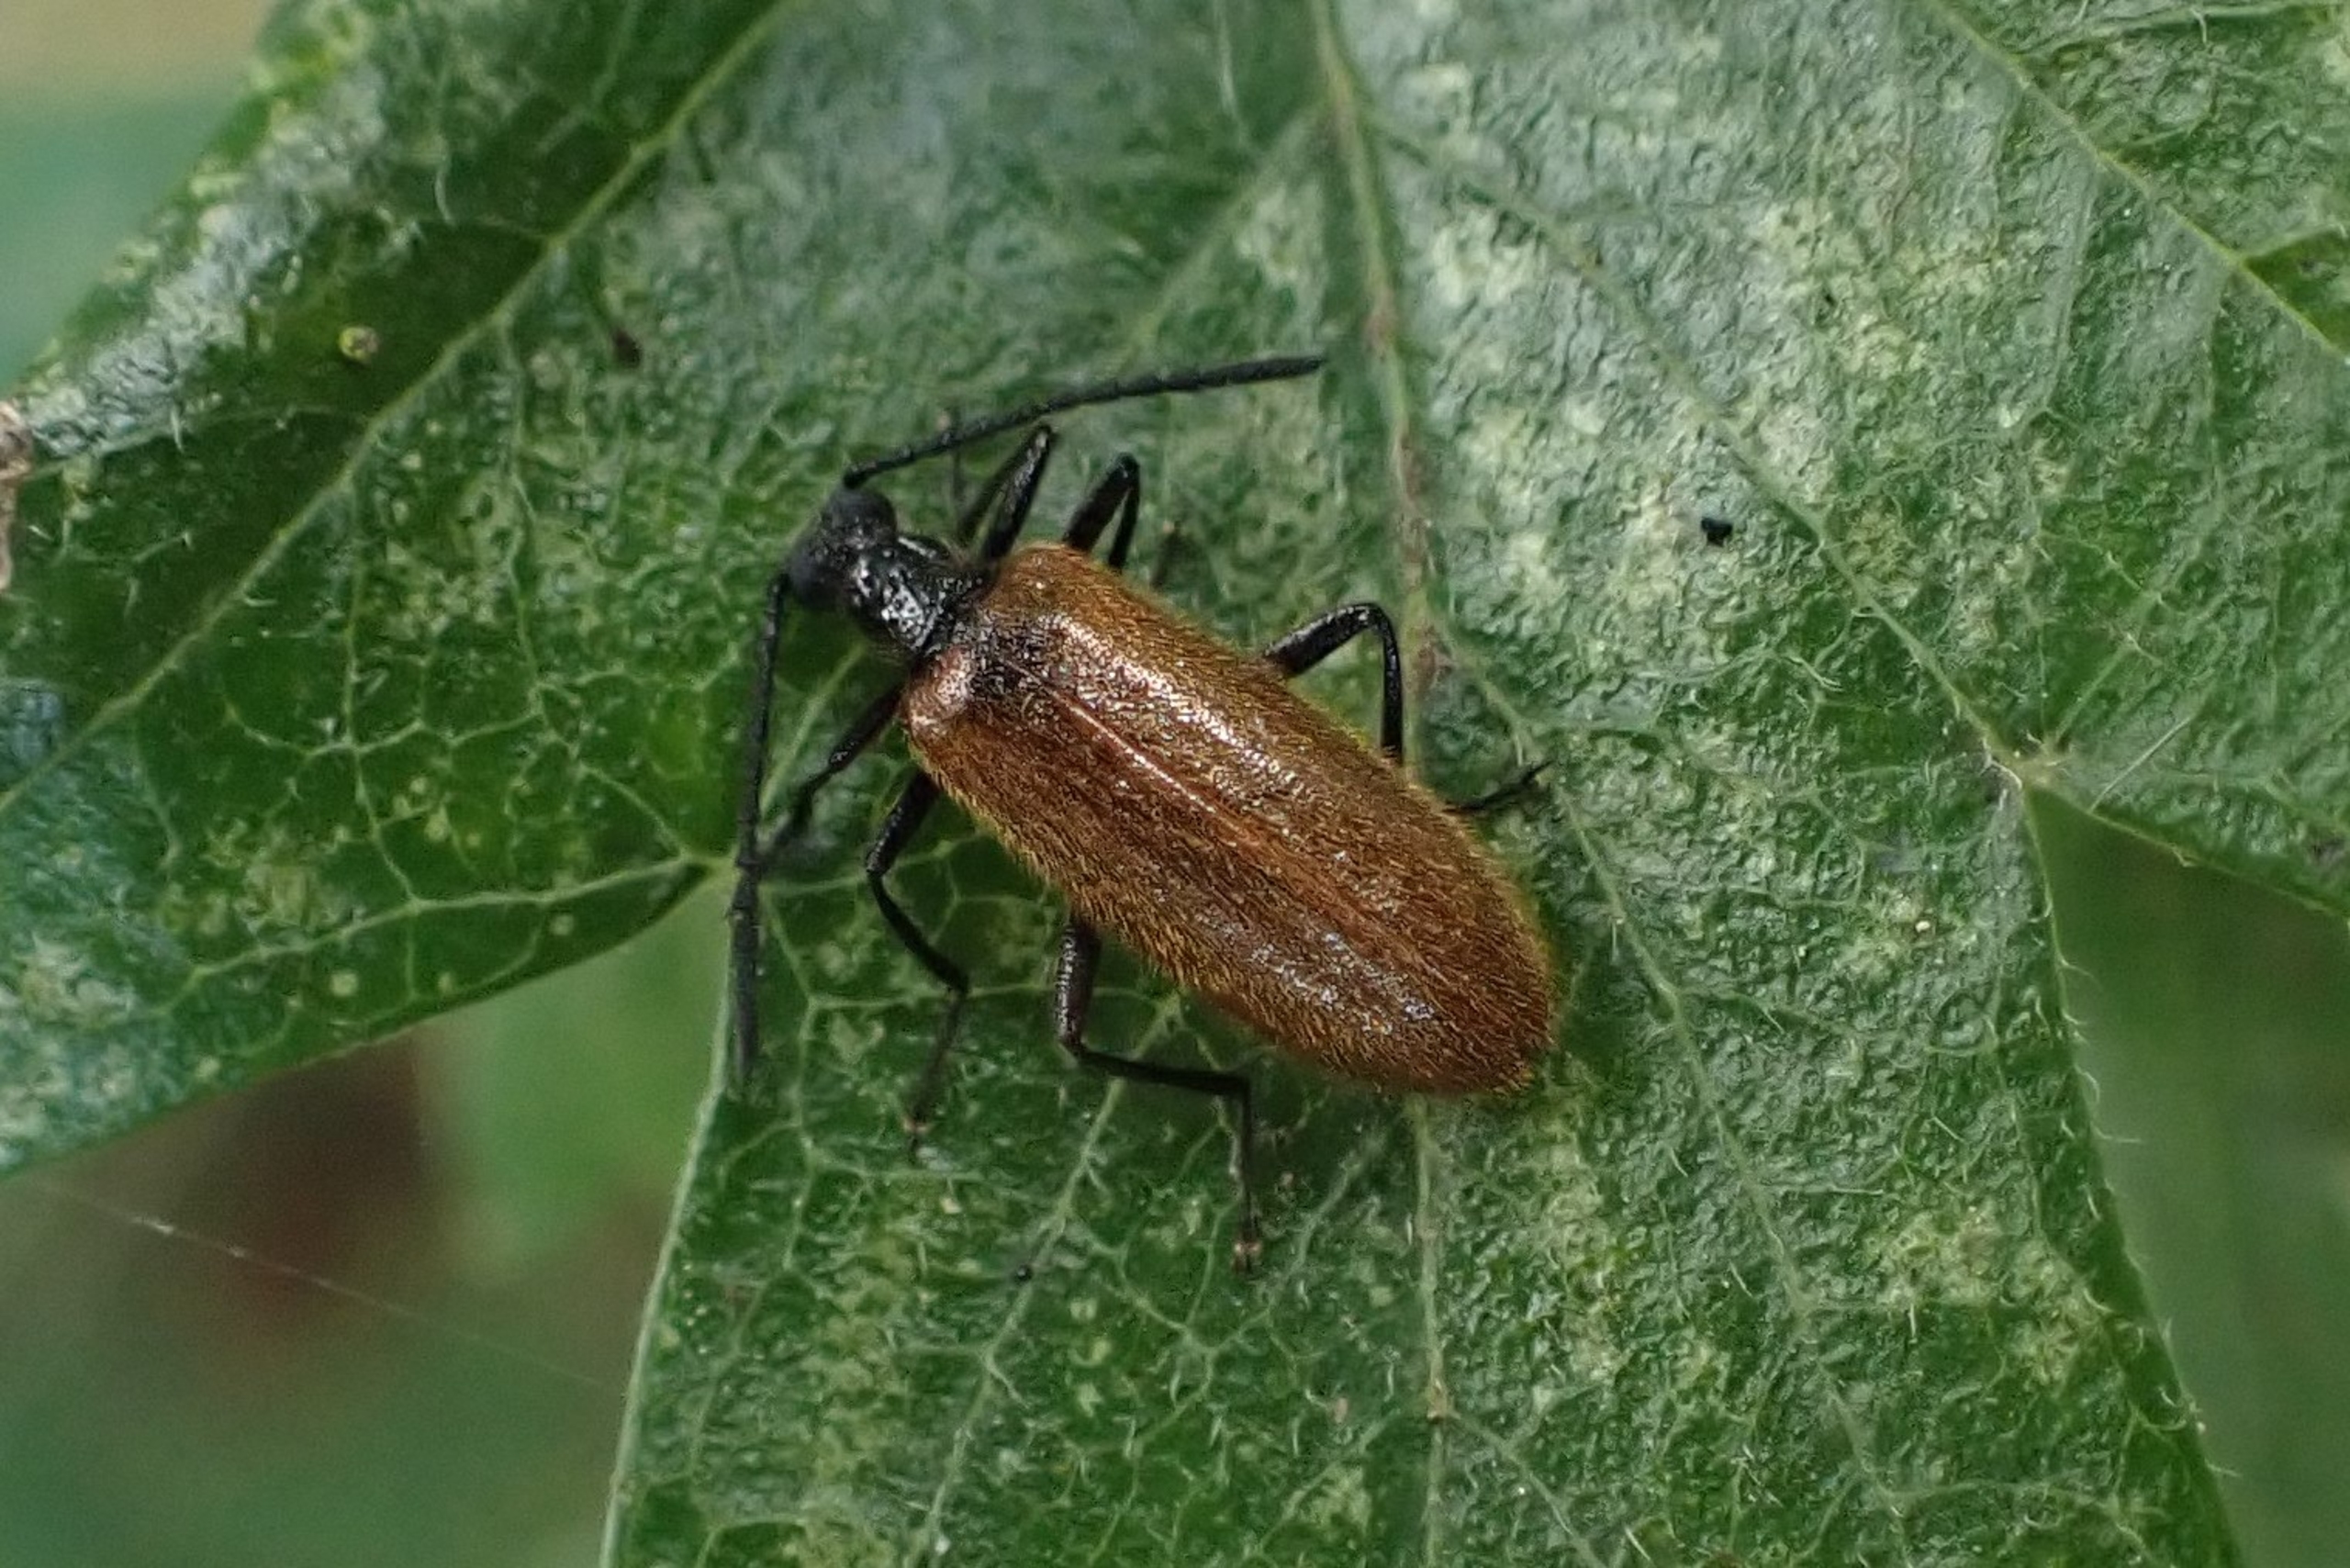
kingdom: Animalia
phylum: Arthropoda
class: Insecta
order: Coleoptera
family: Tenebrionidae
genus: Lagria
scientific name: Lagria hirta
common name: Håret skyggebille
